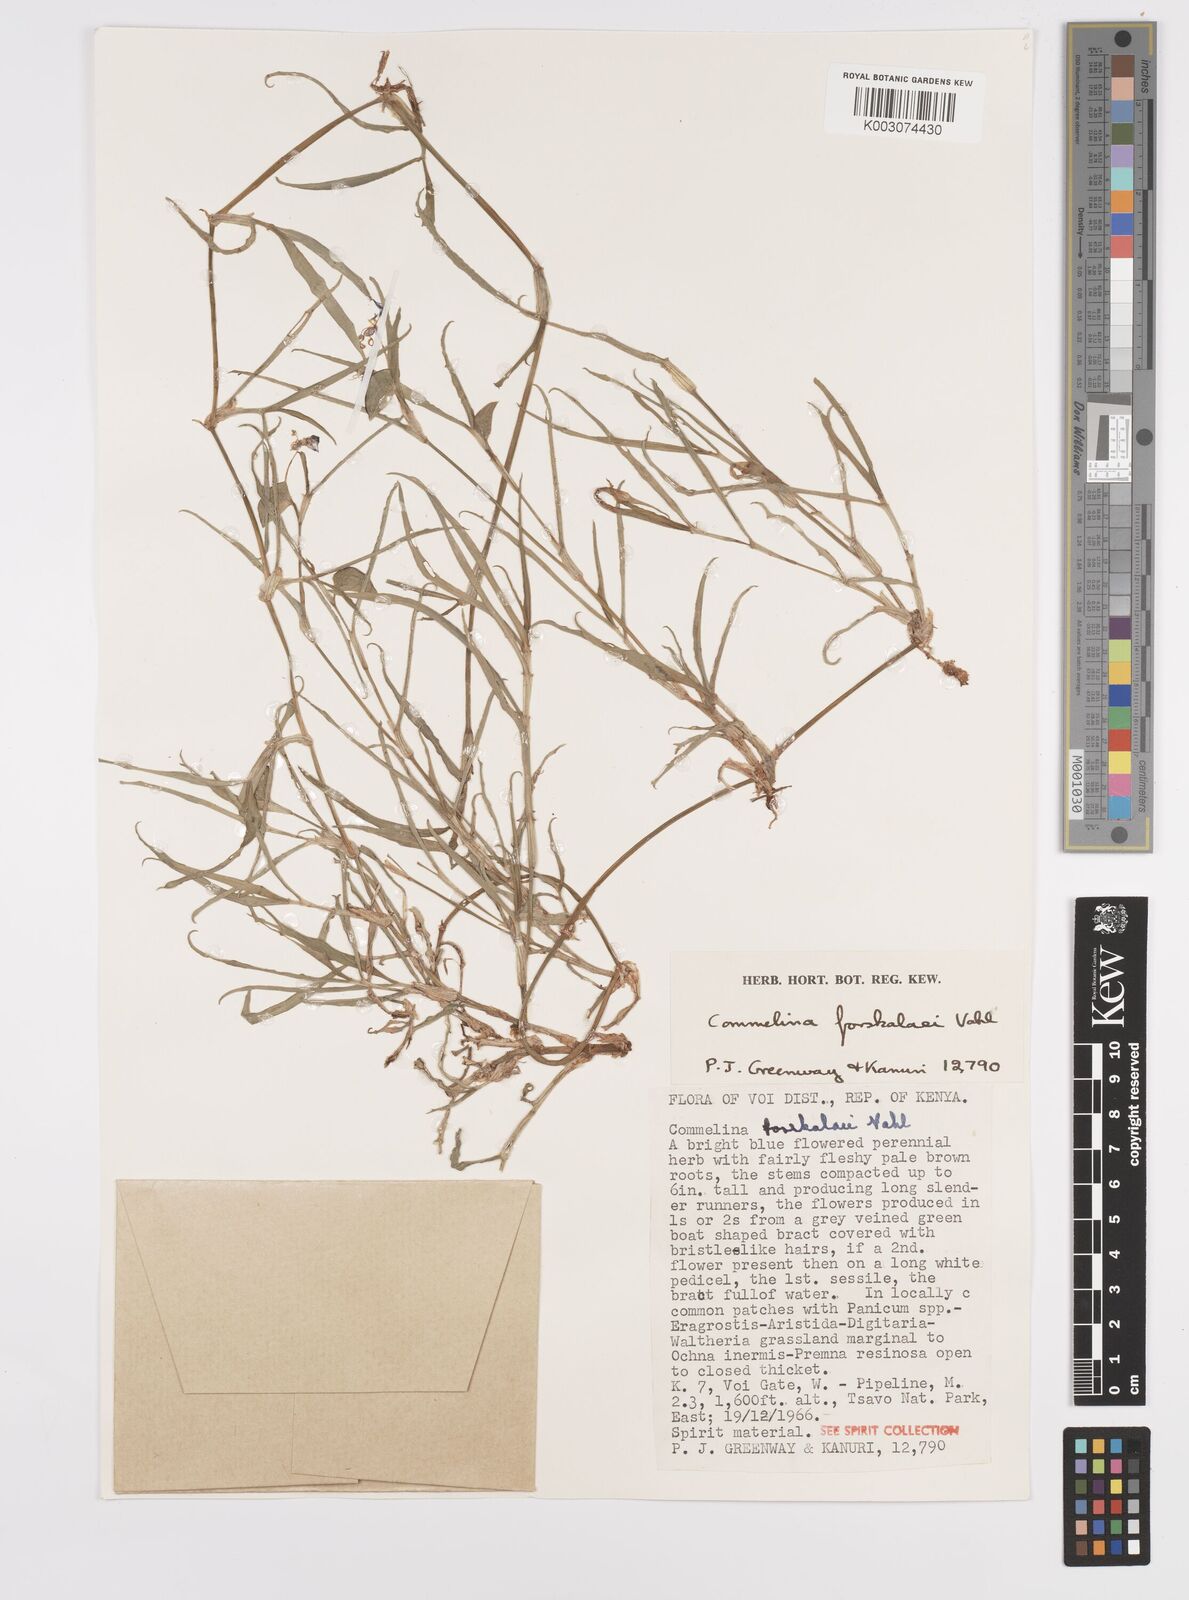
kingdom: Plantae
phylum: Tracheophyta
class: Liliopsida
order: Commelinales
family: Commelinaceae
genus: Commelina
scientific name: Commelina forskaolii
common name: Rat's ear
